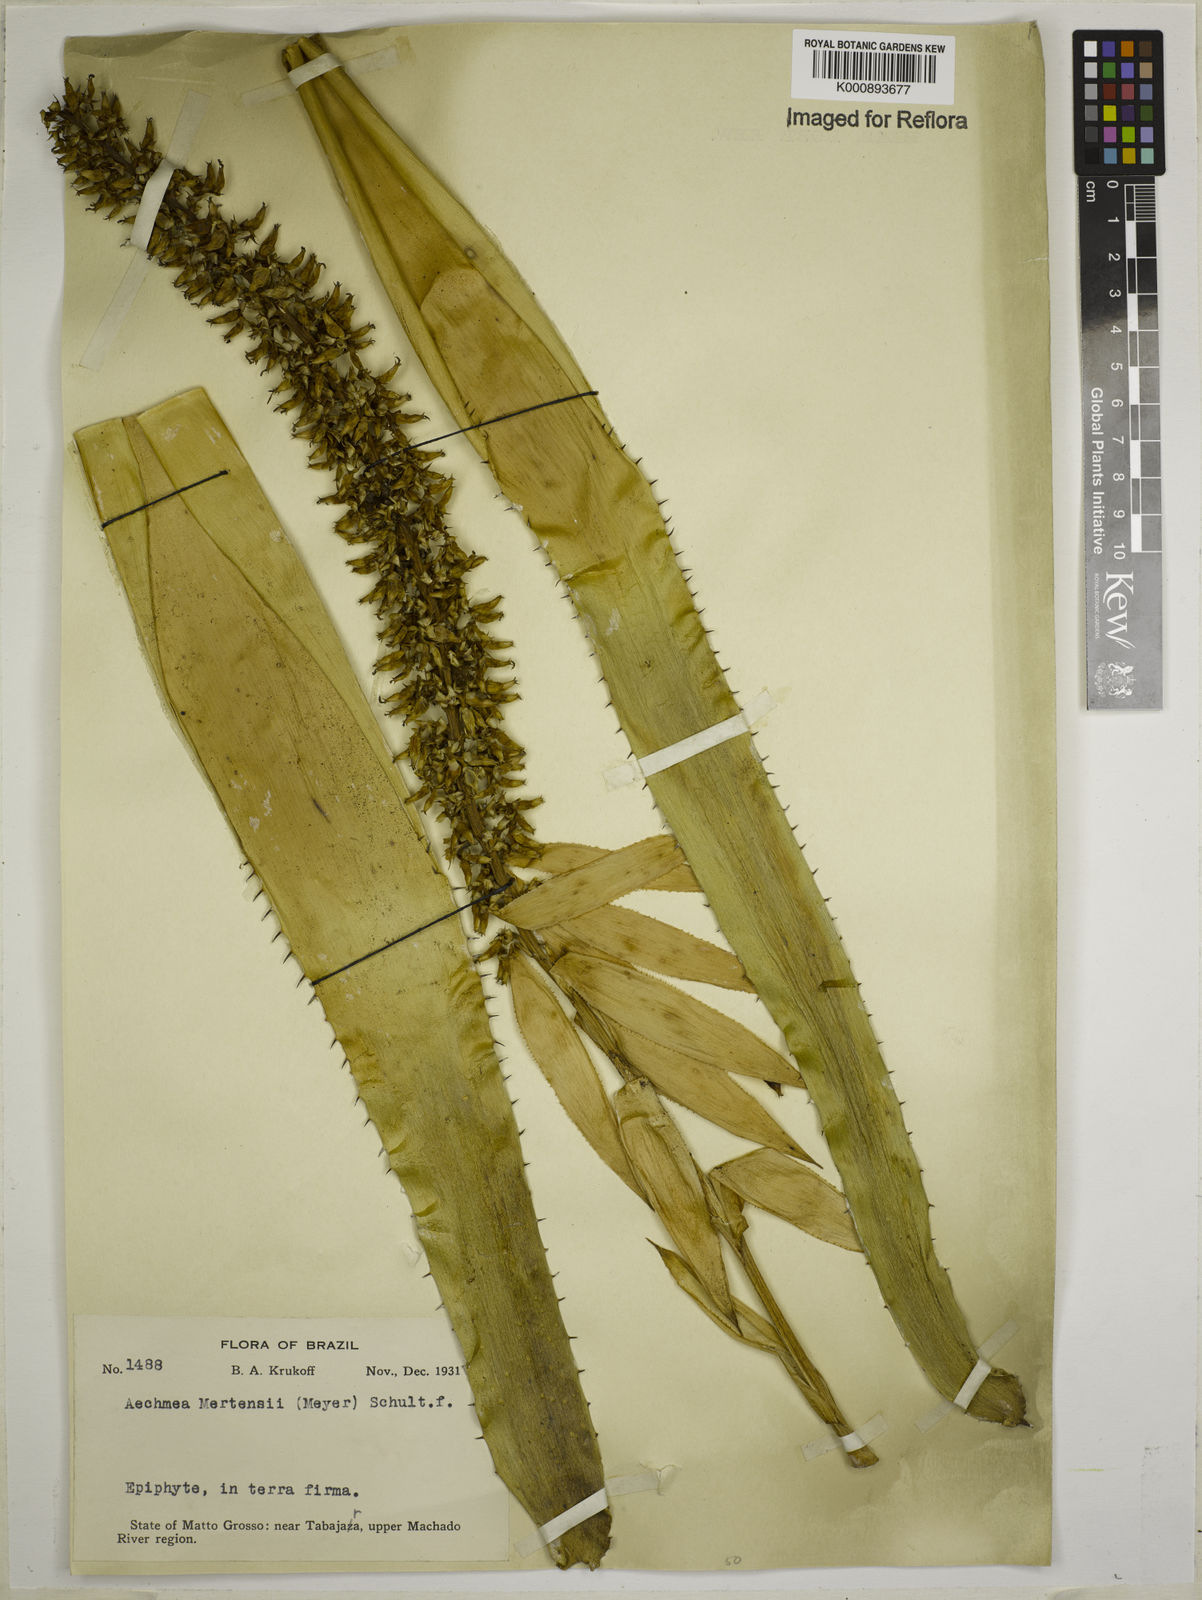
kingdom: Plantae
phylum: Tracheophyta
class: Liliopsida
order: Poales
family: Bromeliaceae
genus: Aechmea
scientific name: Aechmea mertensii
